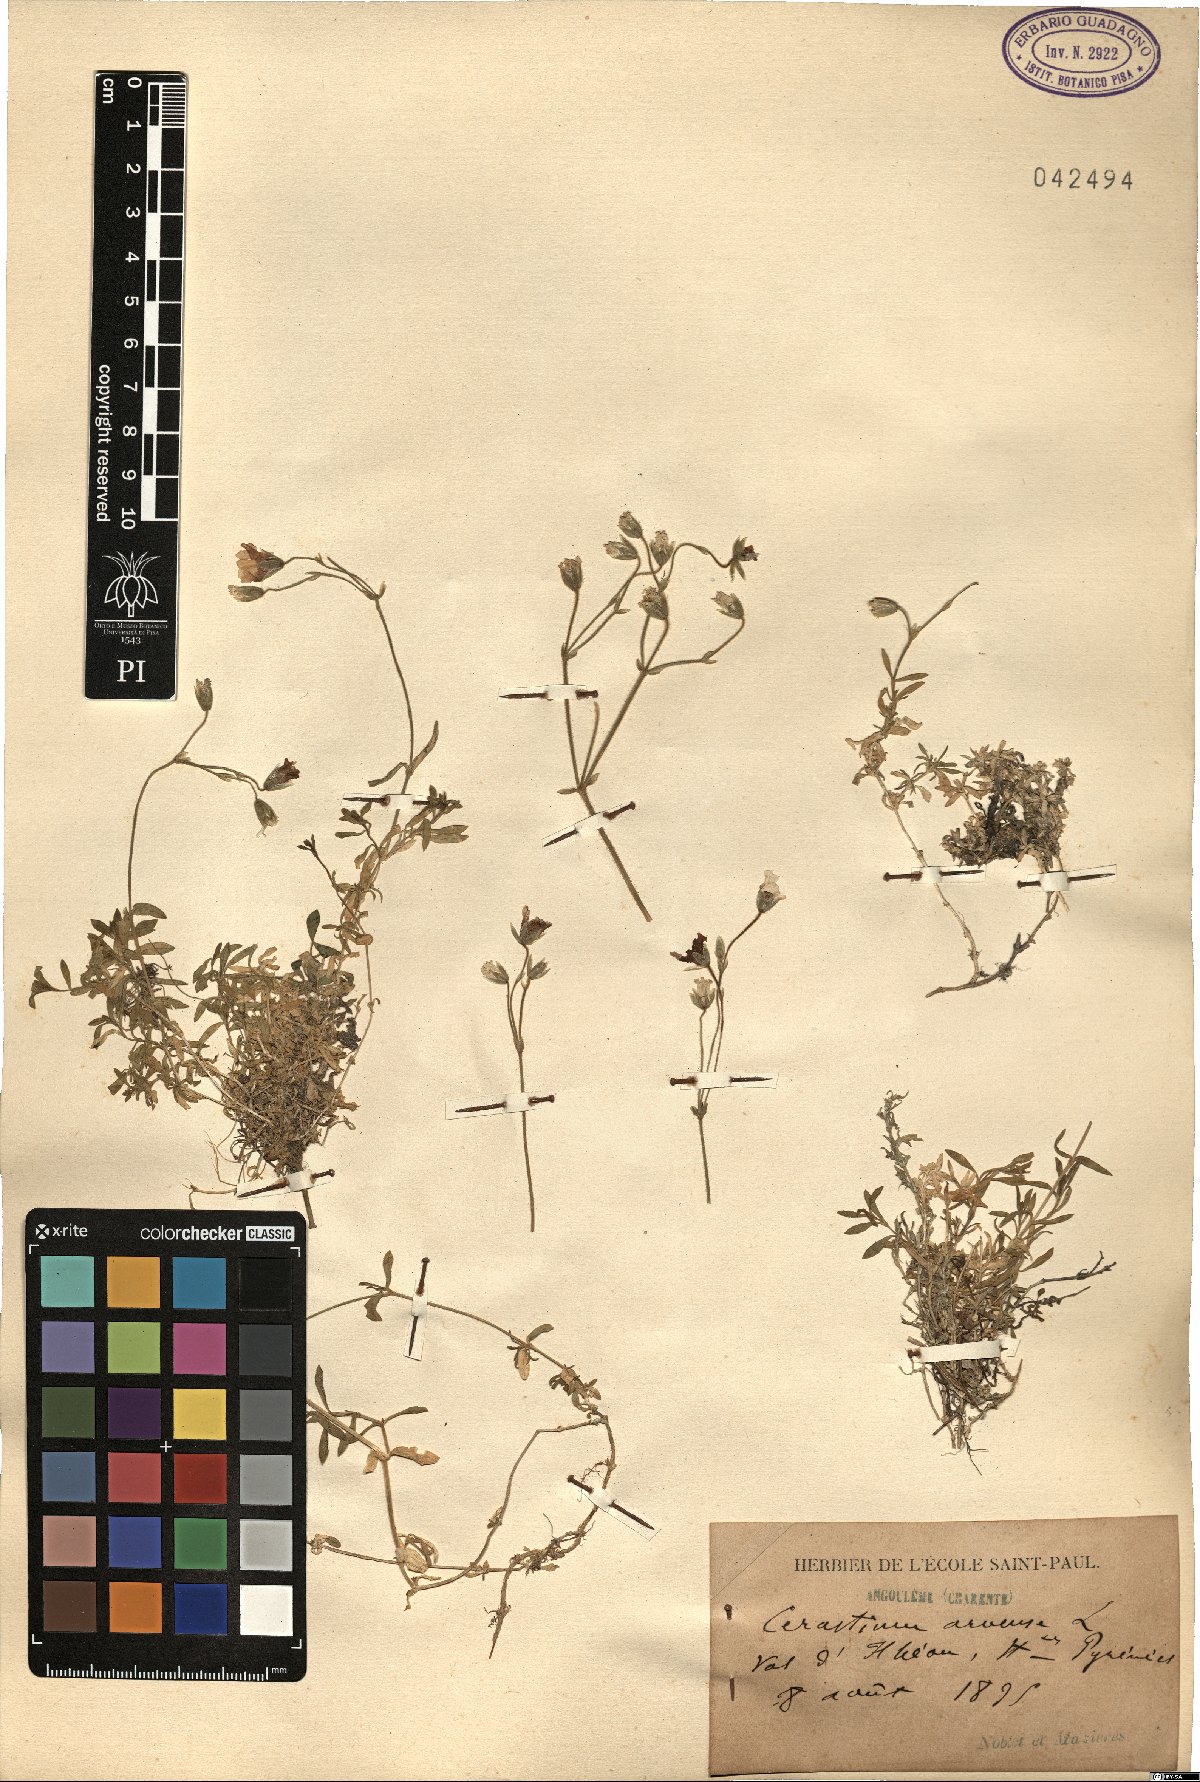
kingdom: Plantae
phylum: Tracheophyta
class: Magnoliopsida
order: Caryophyllales
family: Caryophyllaceae
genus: Cerastium
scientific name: Cerastium arvense
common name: Field mouse-ear
